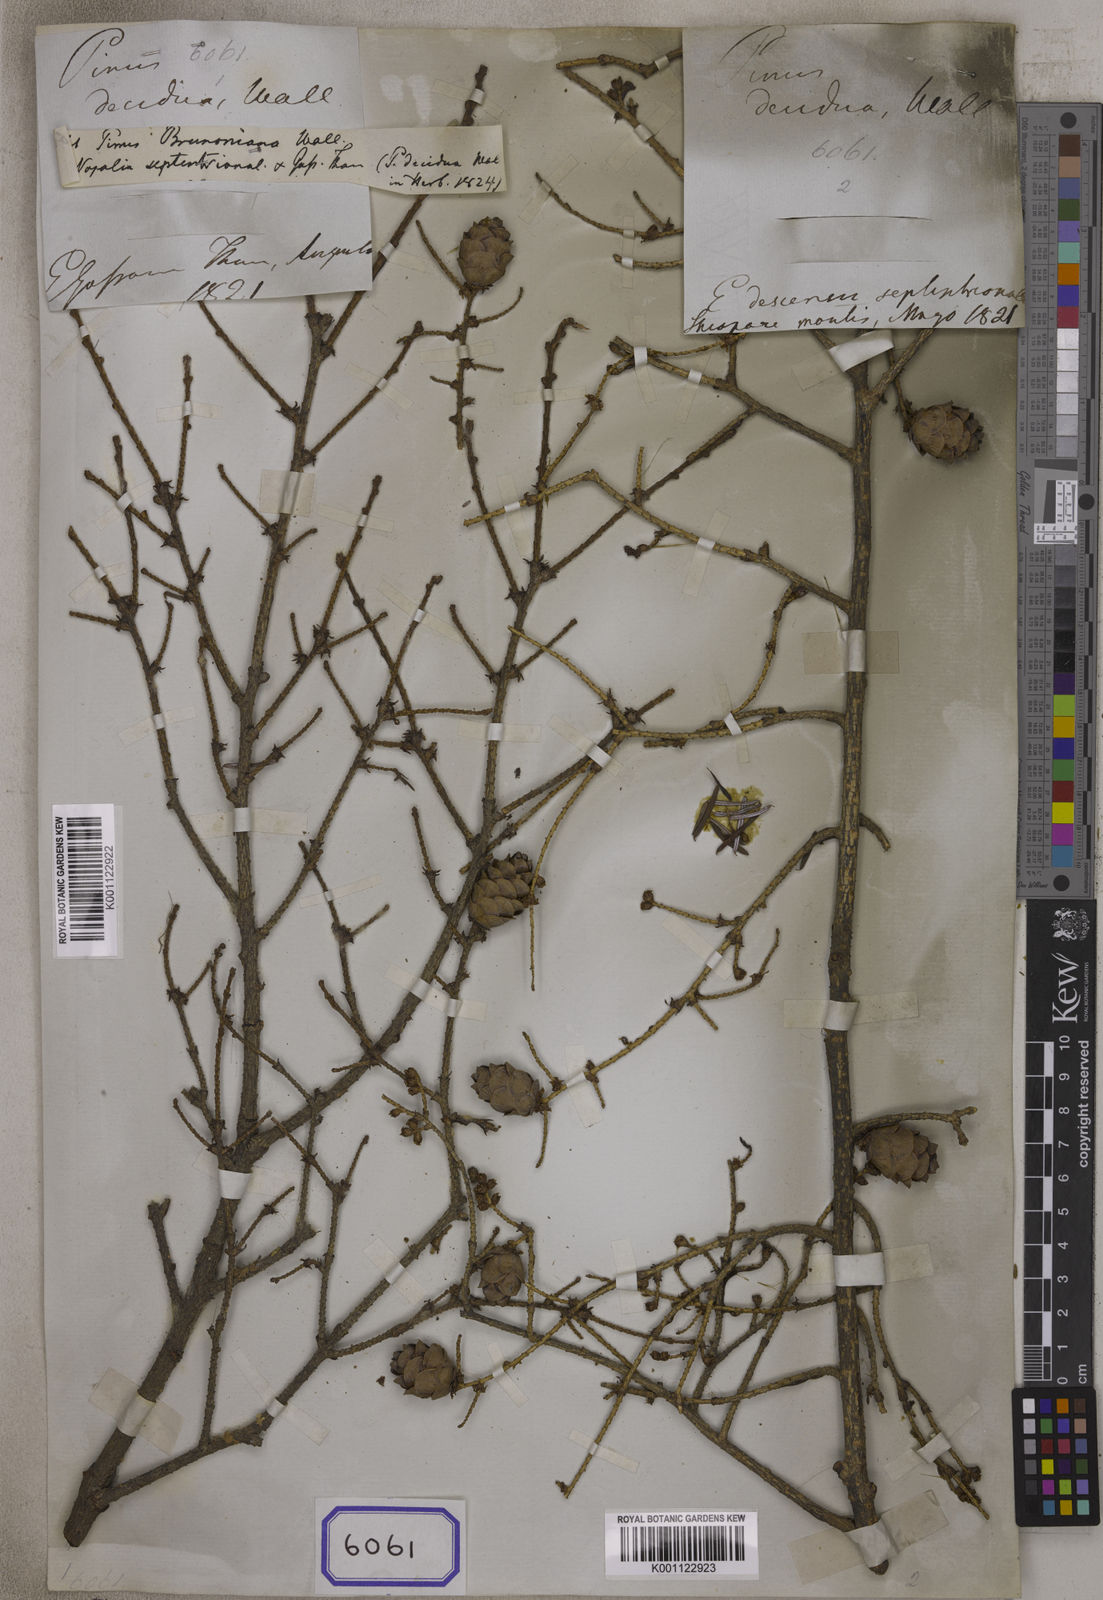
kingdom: Plantae
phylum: Tracheophyta
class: Pinopsida
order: Pinales
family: Pinaceae
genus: Tsuga
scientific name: Tsuga dumosa
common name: Himalayan hemlock
